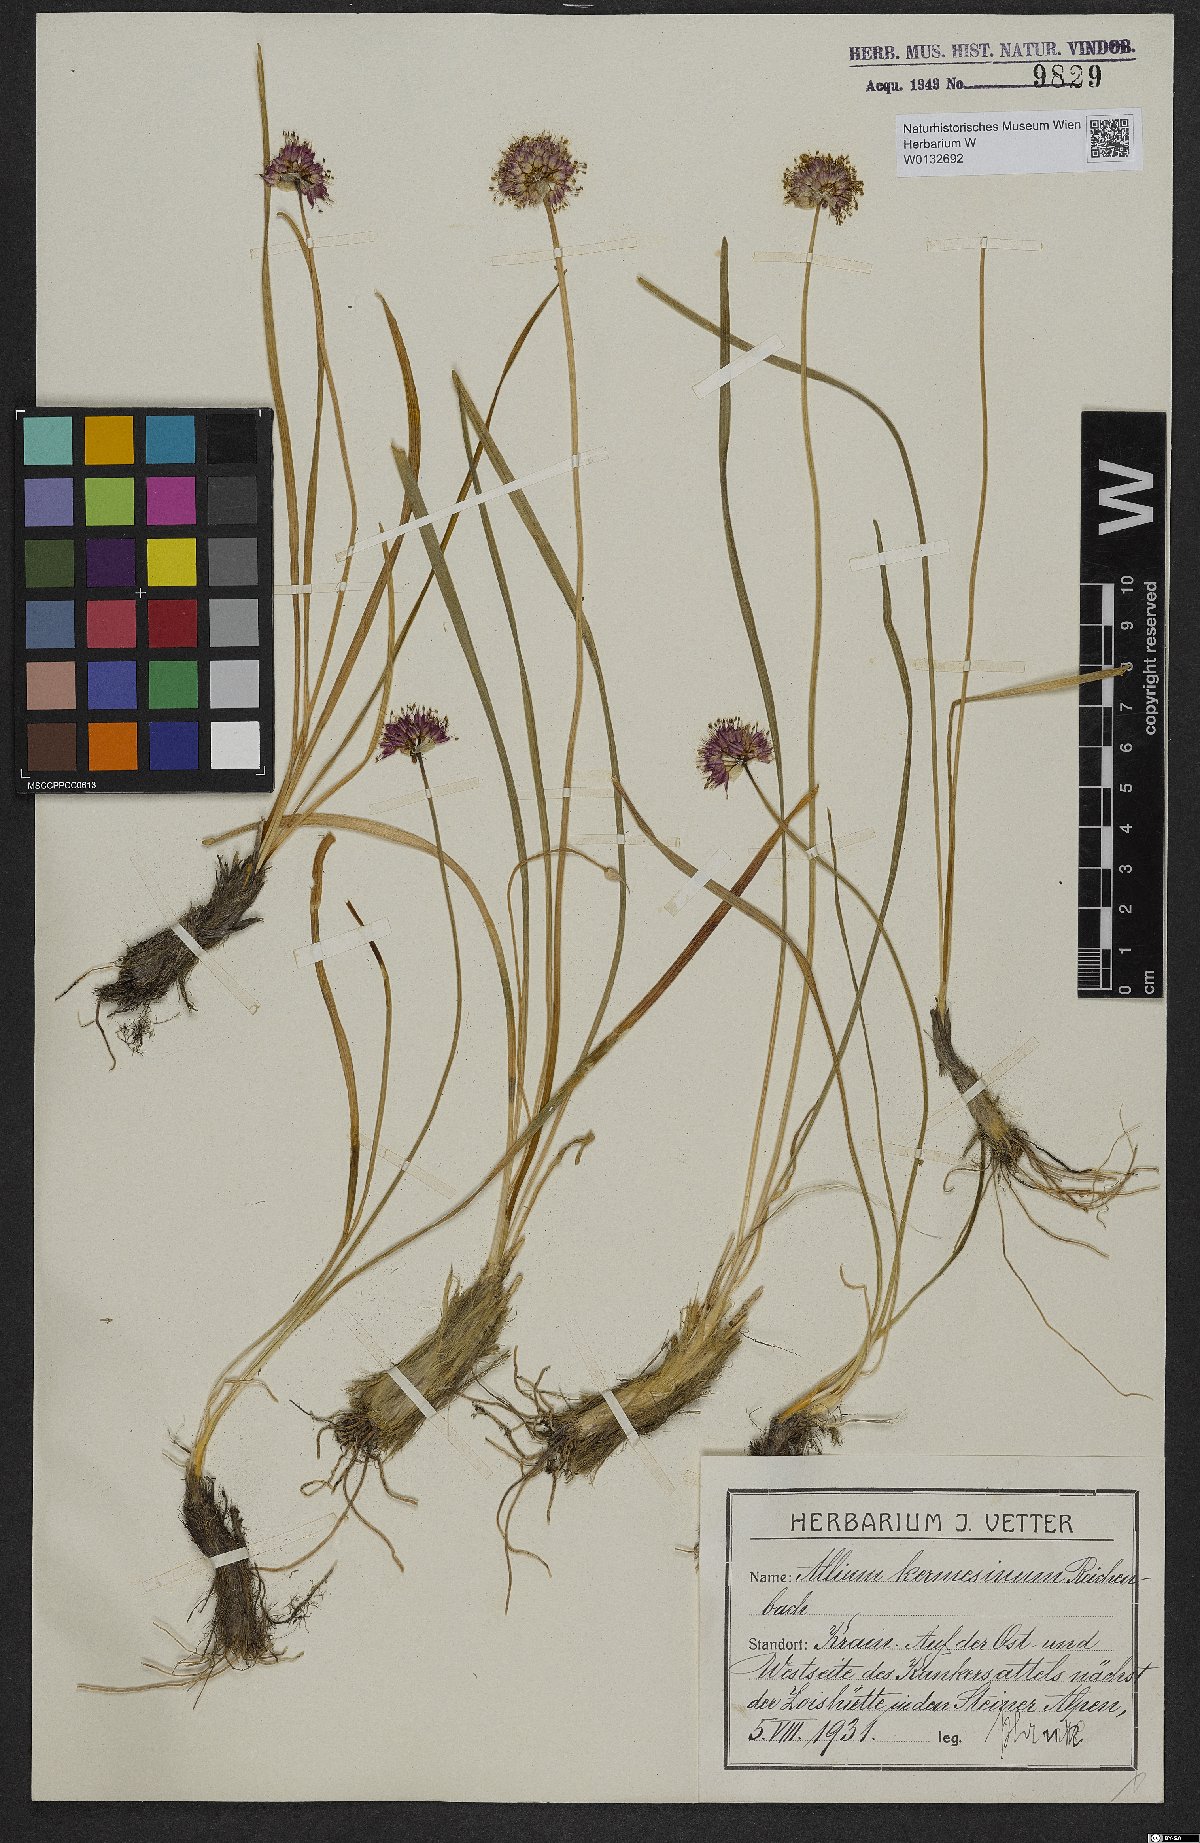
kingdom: Plantae
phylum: Tracheophyta
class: Liliopsida
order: Asparagales
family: Amaryllidaceae
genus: Allium
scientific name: Allium kermesinum
